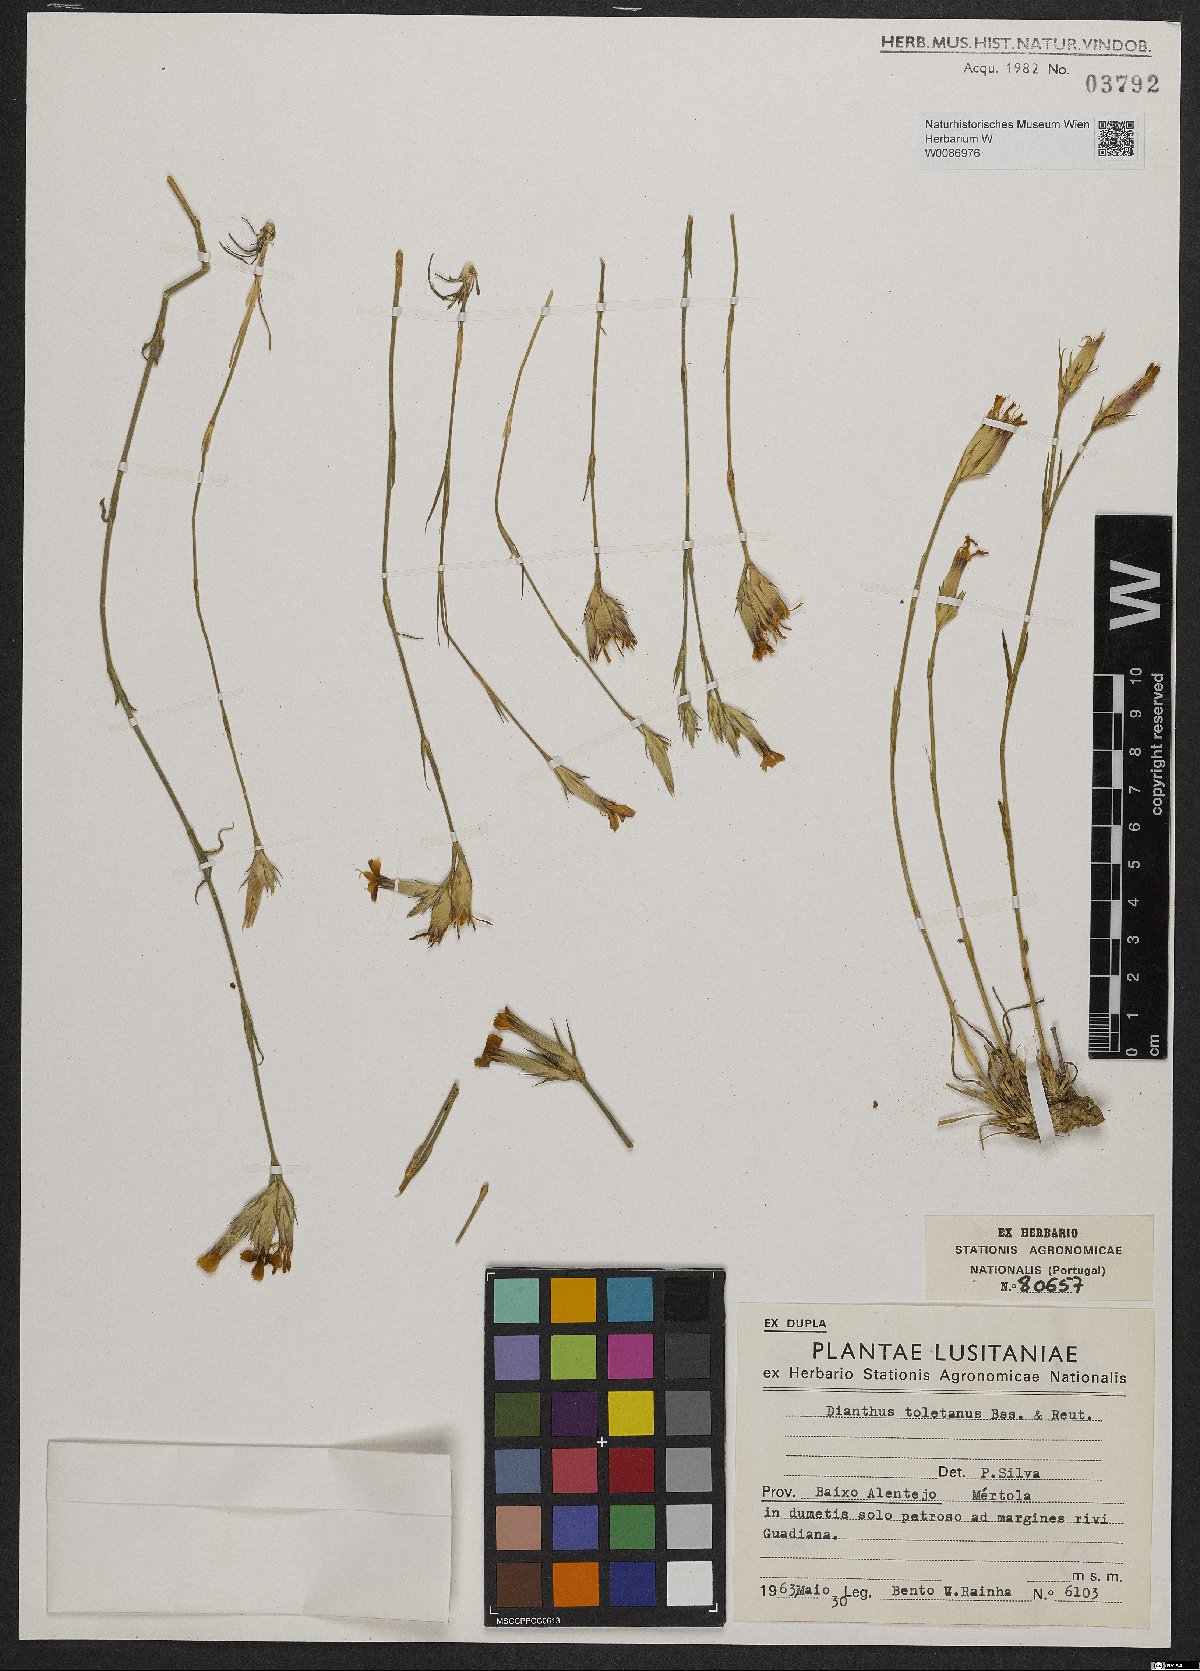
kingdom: Plantae
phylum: Tracheophyta
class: Magnoliopsida
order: Caryophyllales
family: Caryophyllaceae
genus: Dianthus
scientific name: Dianthus toletanus
